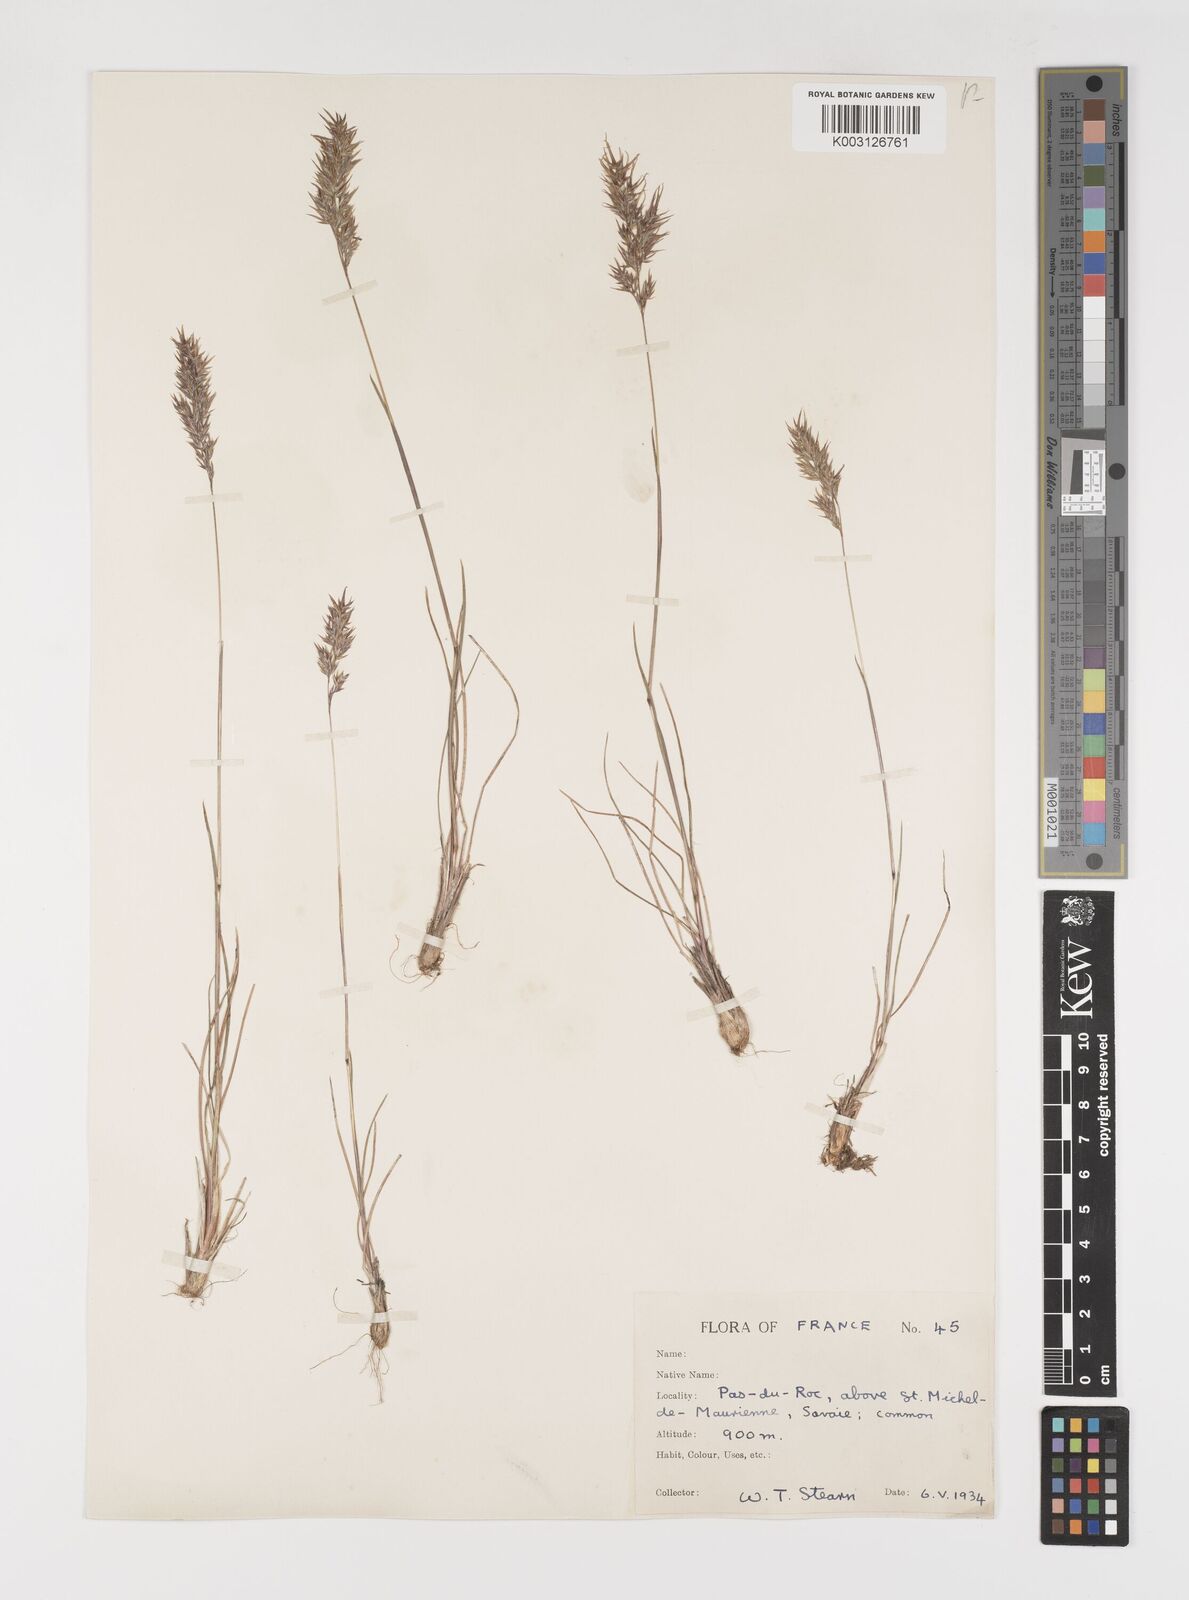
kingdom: Plantae
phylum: Tracheophyta
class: Liliopsida
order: Poales
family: Poaceae
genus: Poa
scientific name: Poa bulbosa
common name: Bulbous bluegrass
